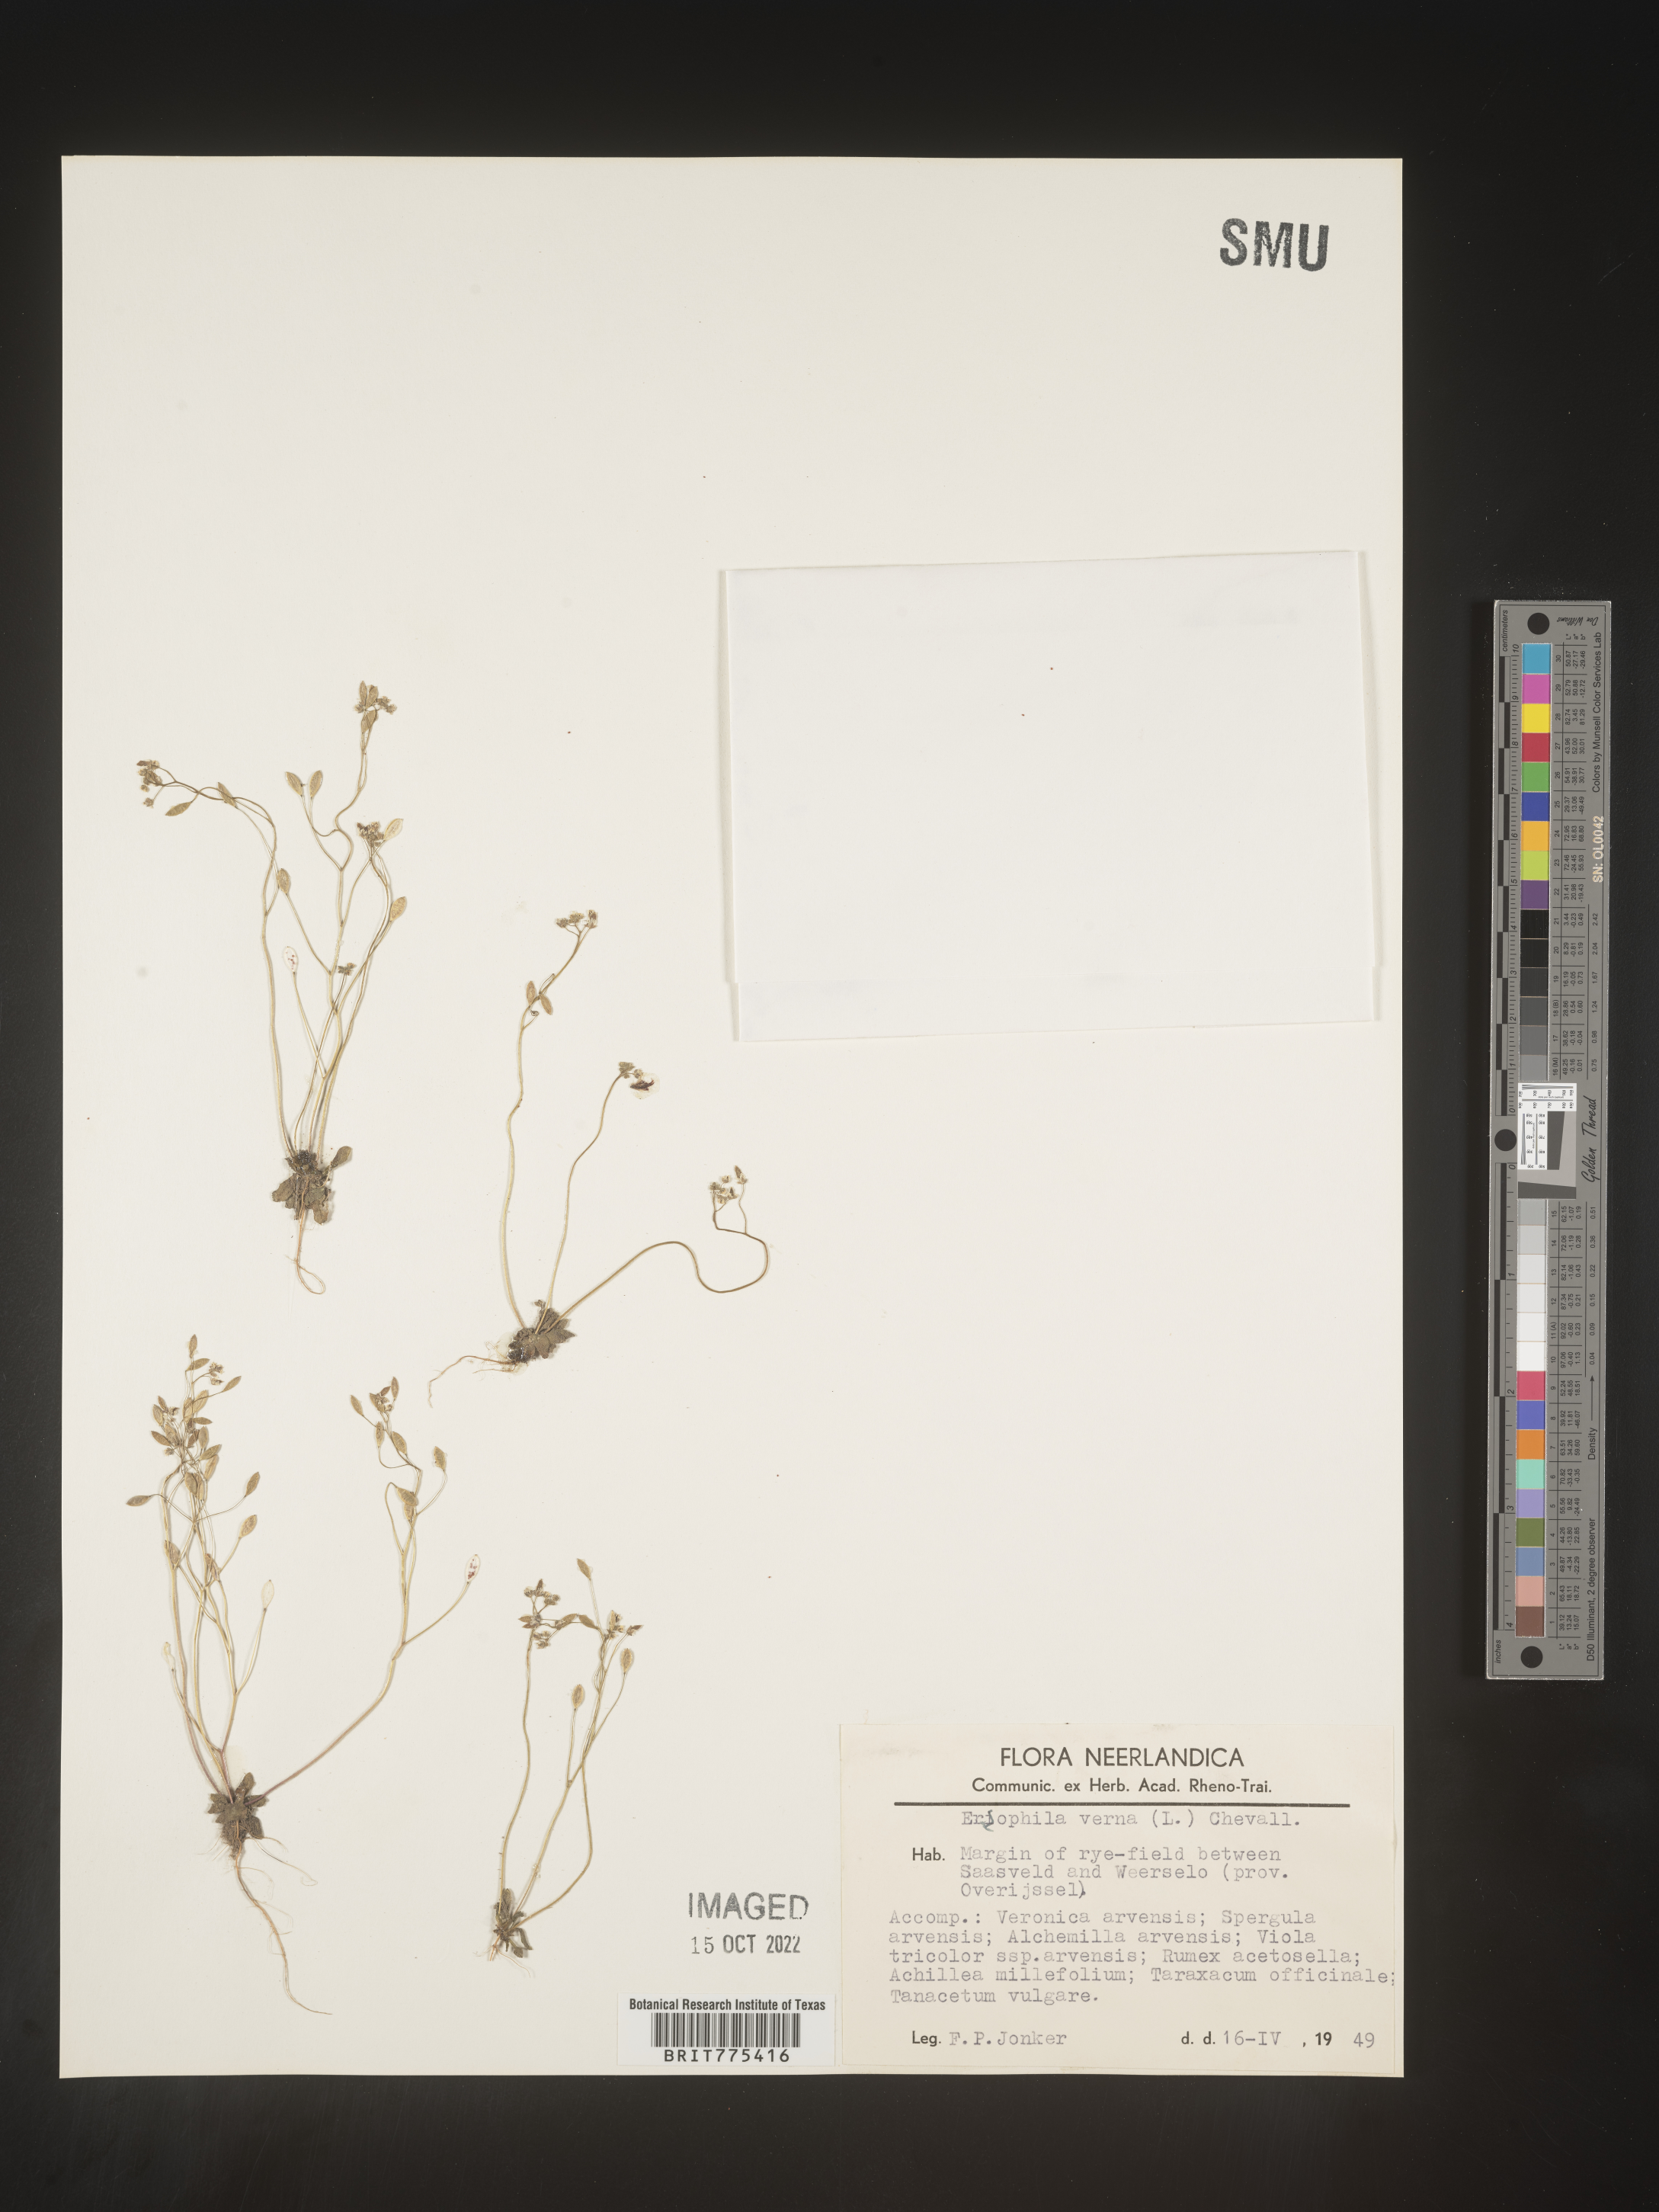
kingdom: Plantae
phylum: Tracheophyta
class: Magnoliopsida
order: Brassicales
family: Brassicaceae
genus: Draba
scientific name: Draba
